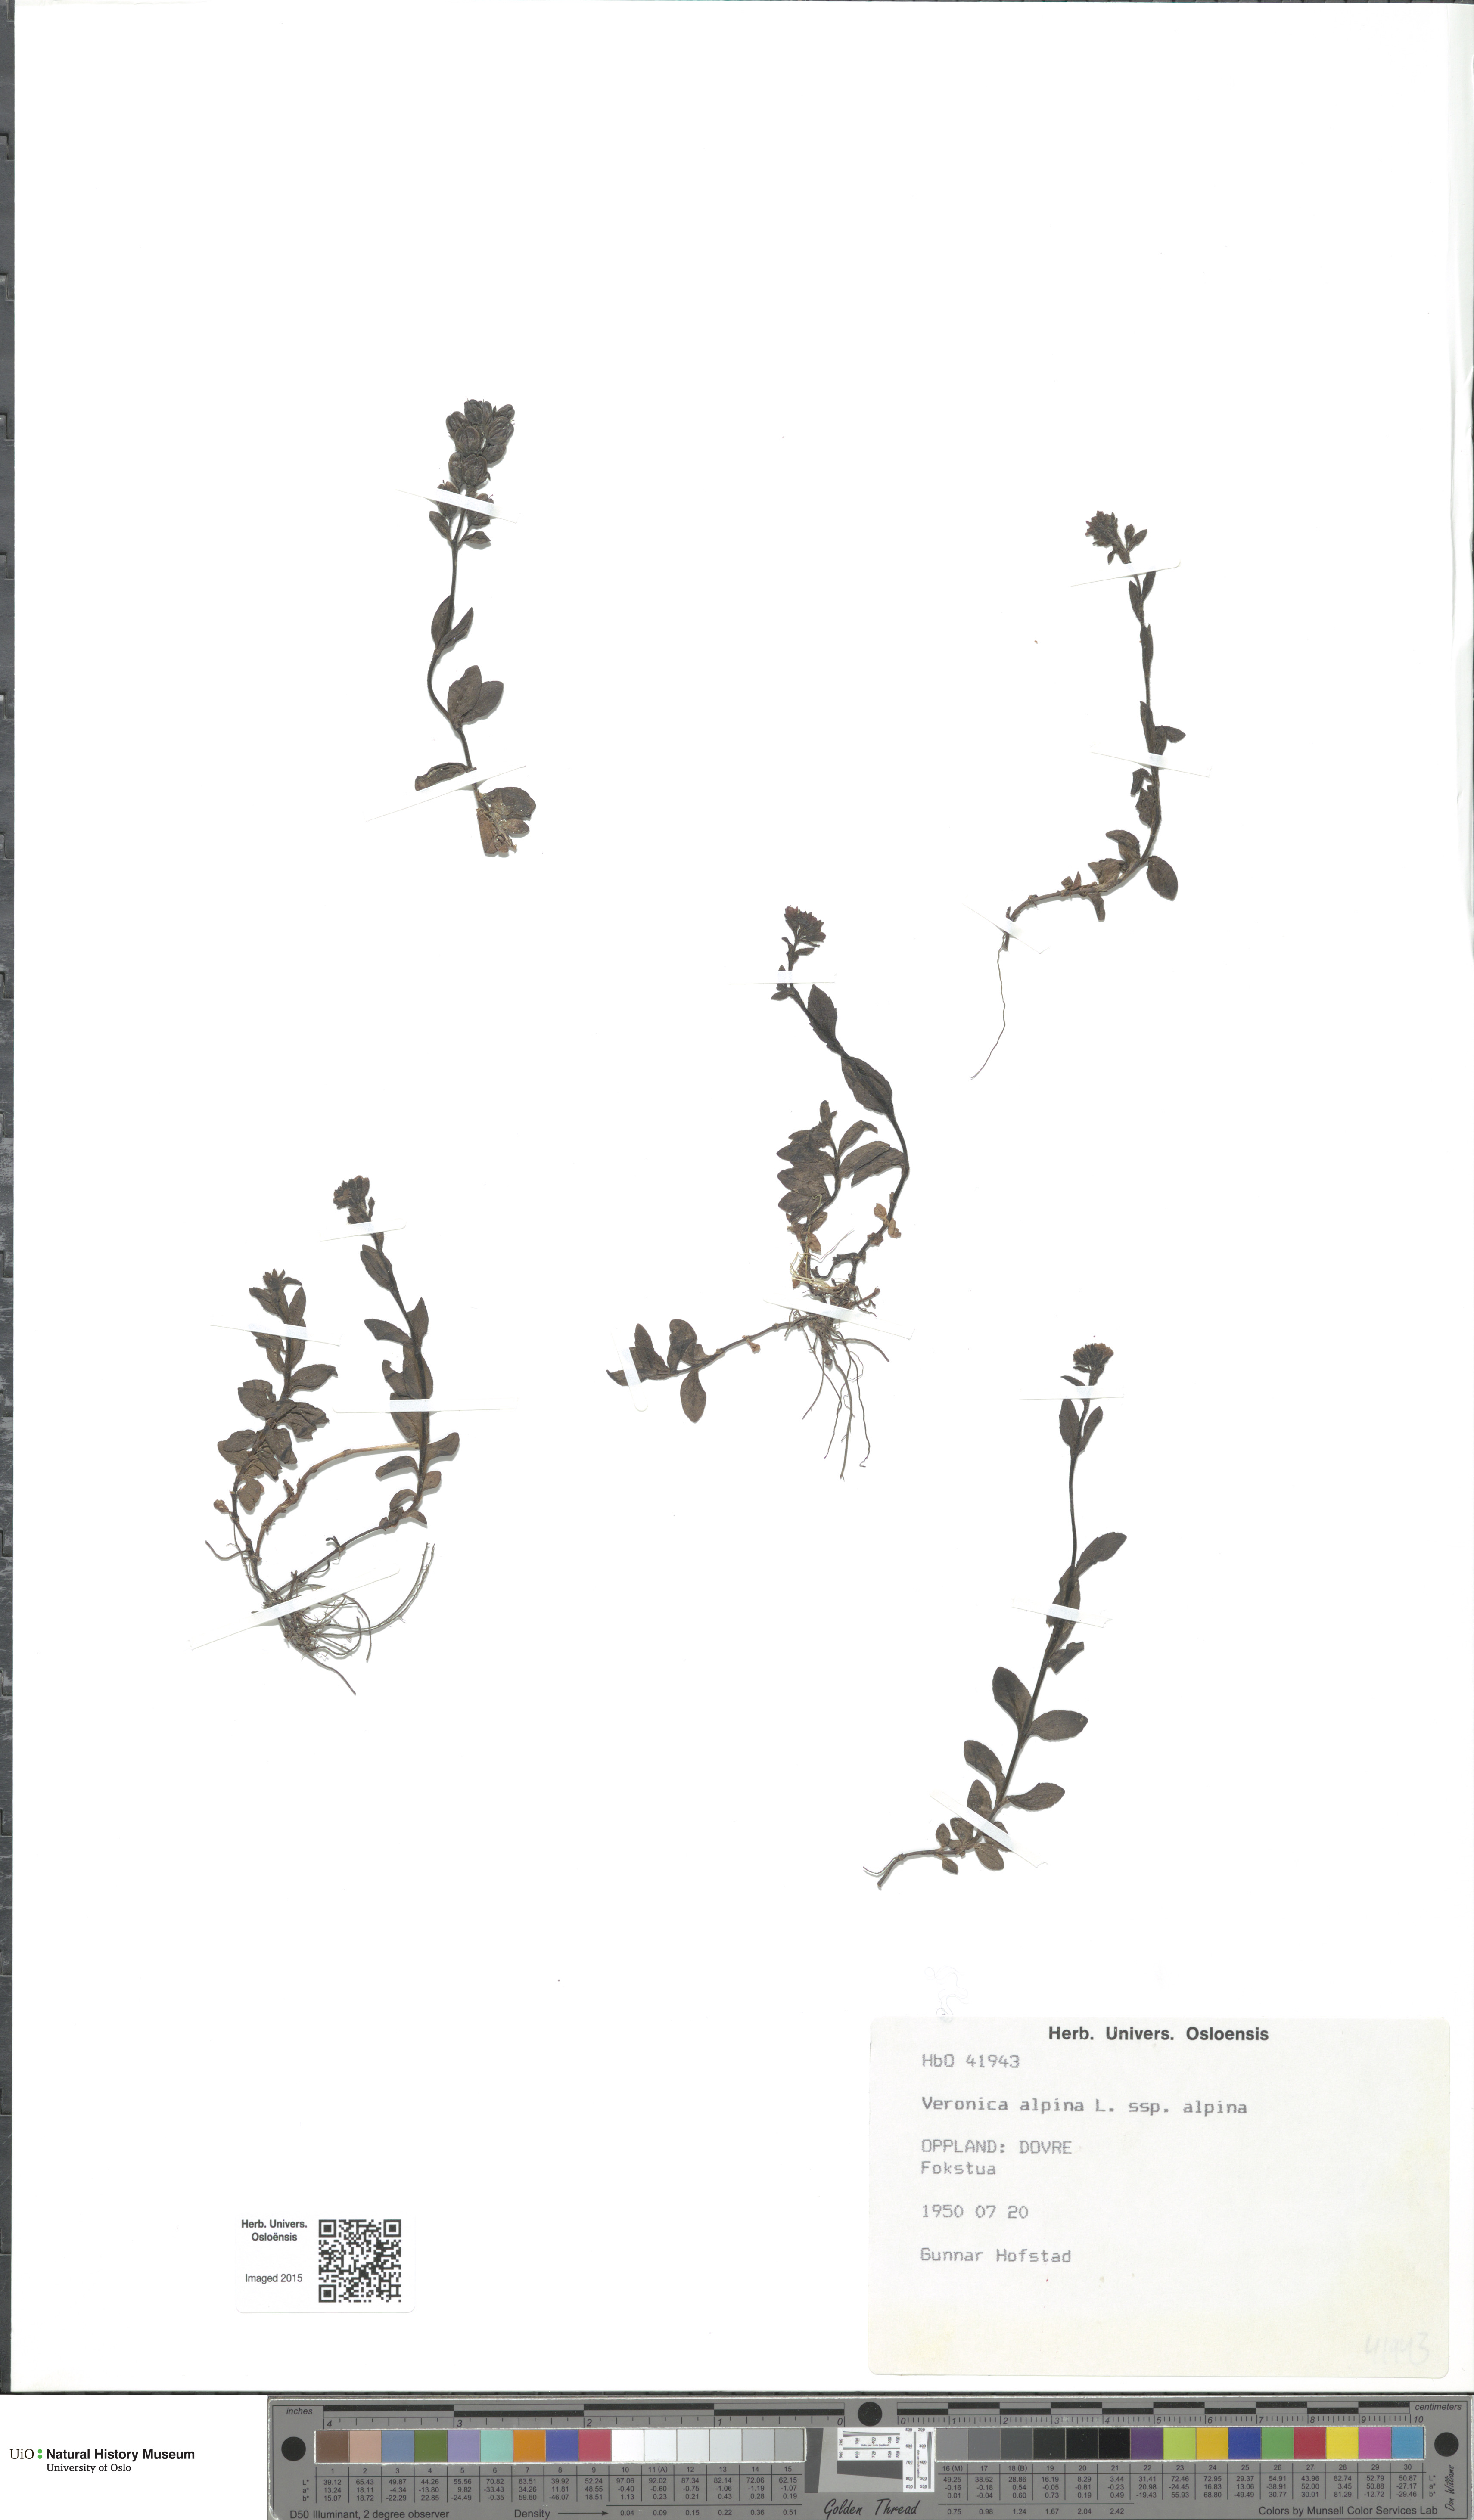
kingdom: Plantae
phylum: Tracheophyta
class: Magnoliopsida
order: Lamiales
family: Plantaginaceae
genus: Veronica
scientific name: Veronica alpina
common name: Alpine speedwell
